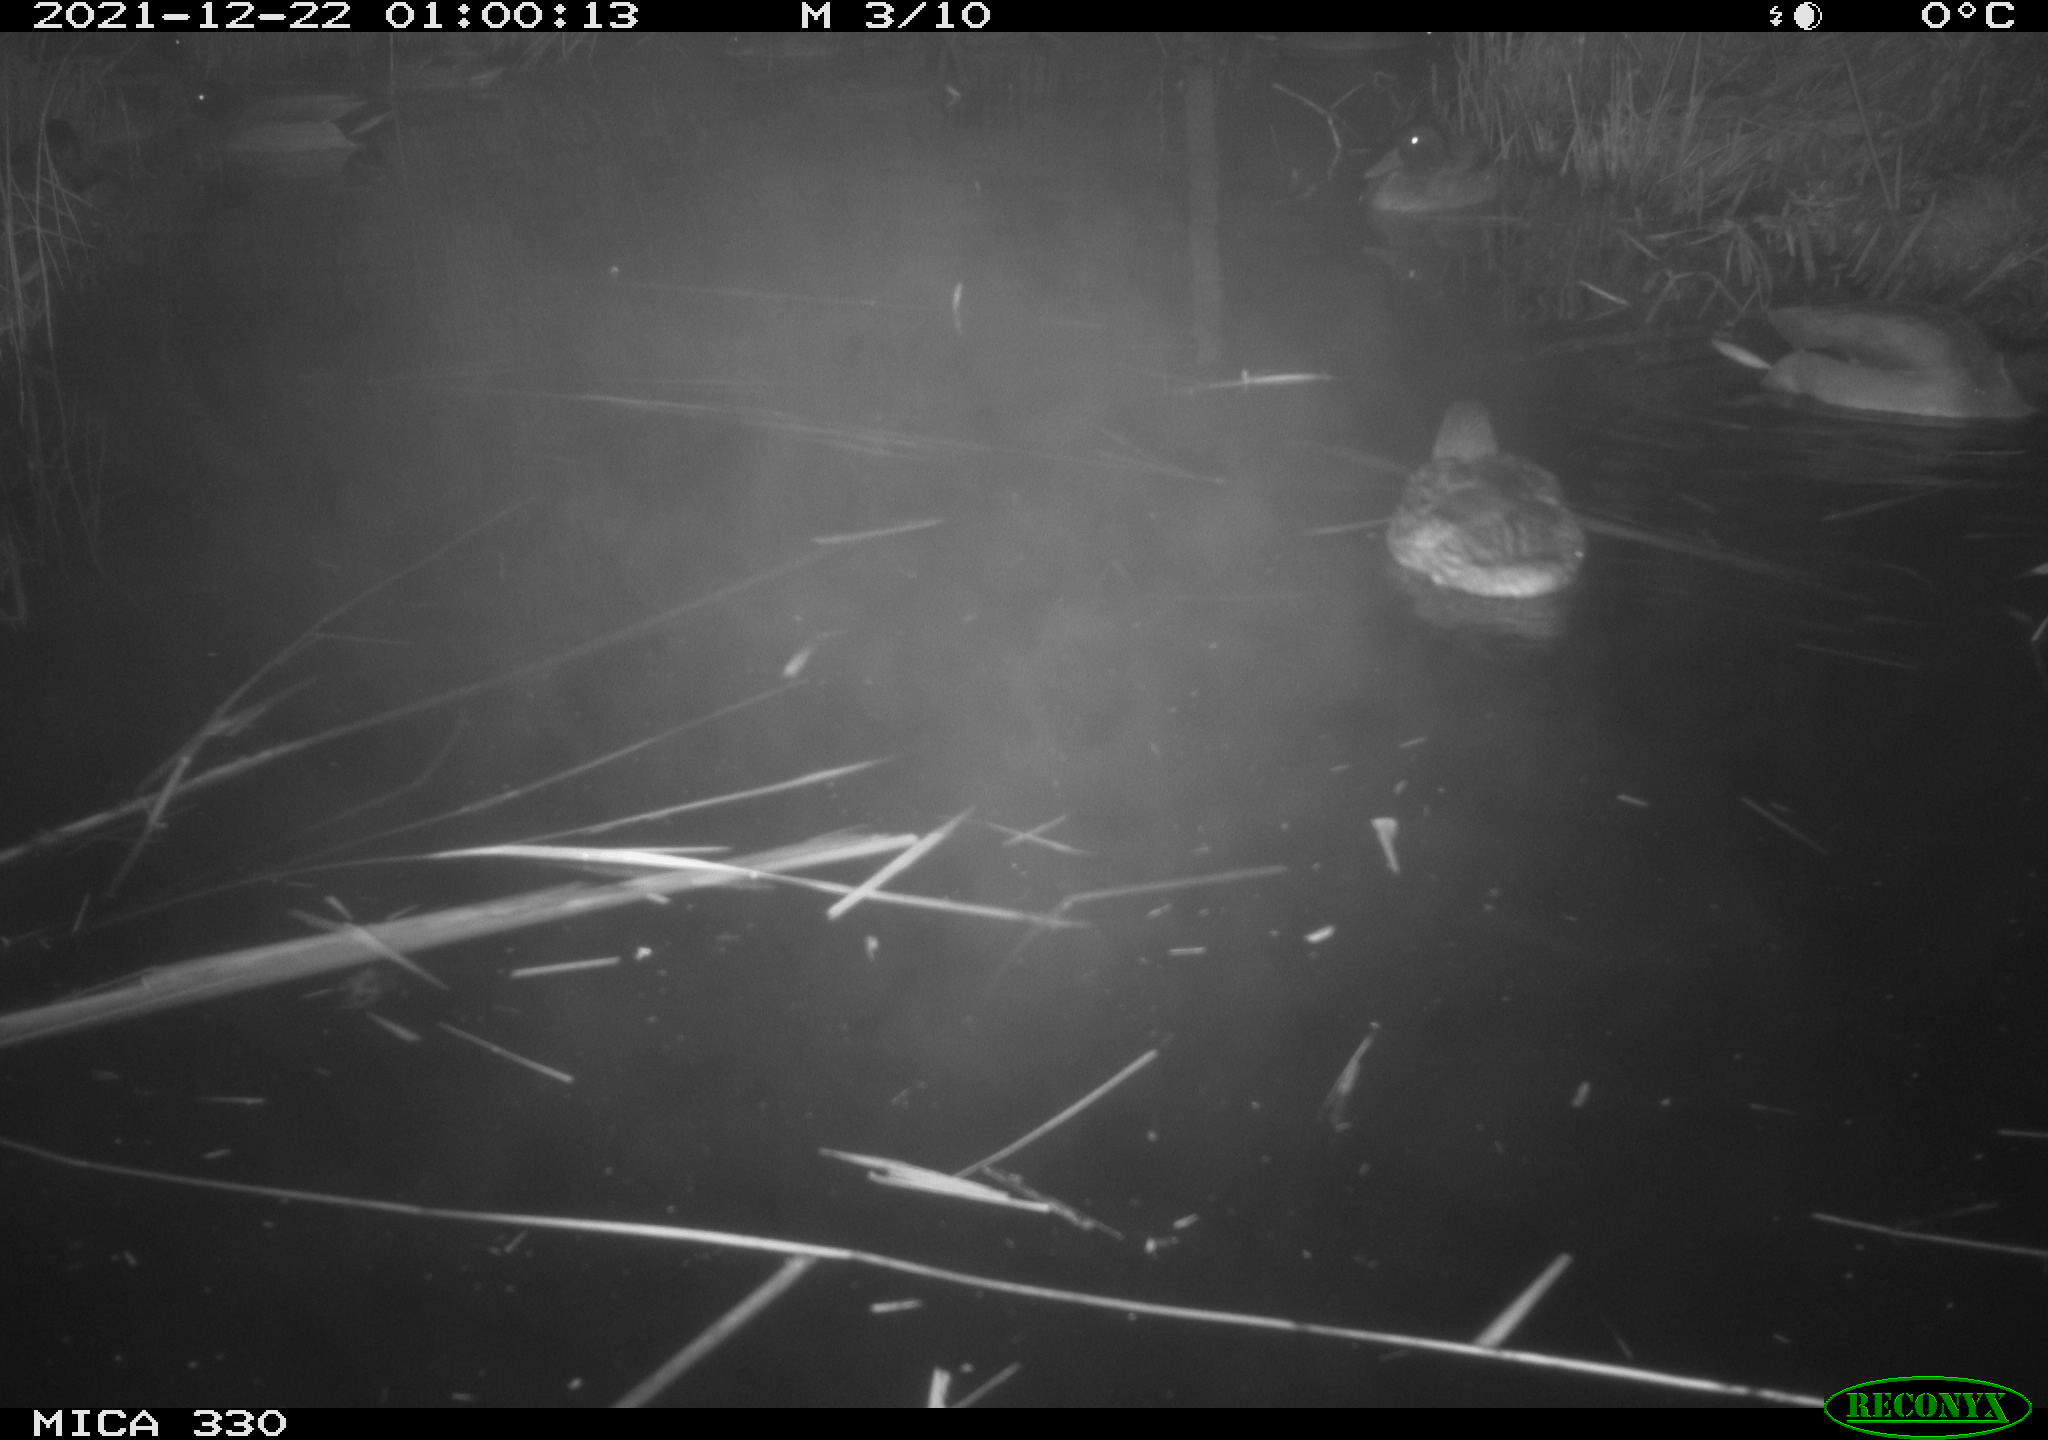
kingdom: Animalia
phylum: Chordata
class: Aves
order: Anseriformes
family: Anatidae
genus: Anas
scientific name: Anas platyrhynchos
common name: Mallard
